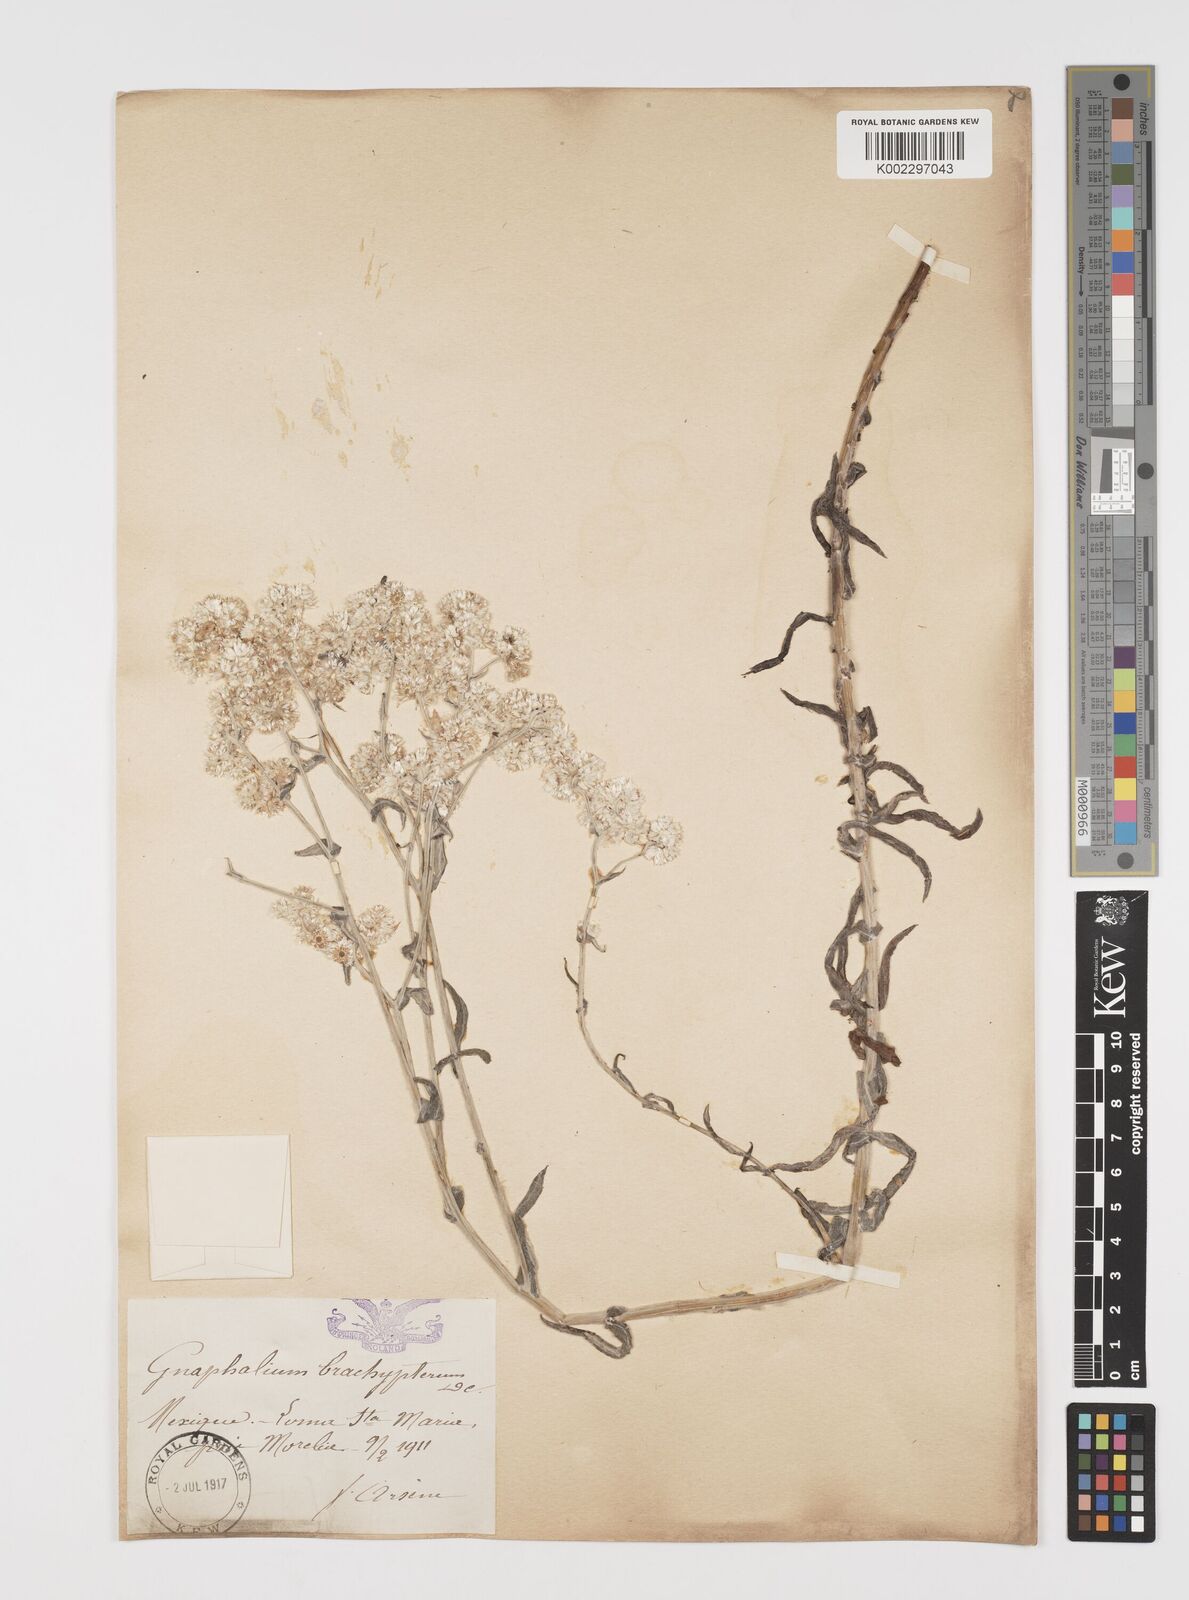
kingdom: Plantae
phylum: Tracheophyta
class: Magnoliopsida
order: Asterales
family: Asteraceae
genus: Pseudognaphalium
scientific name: Pseudognaphalium brachypterum
